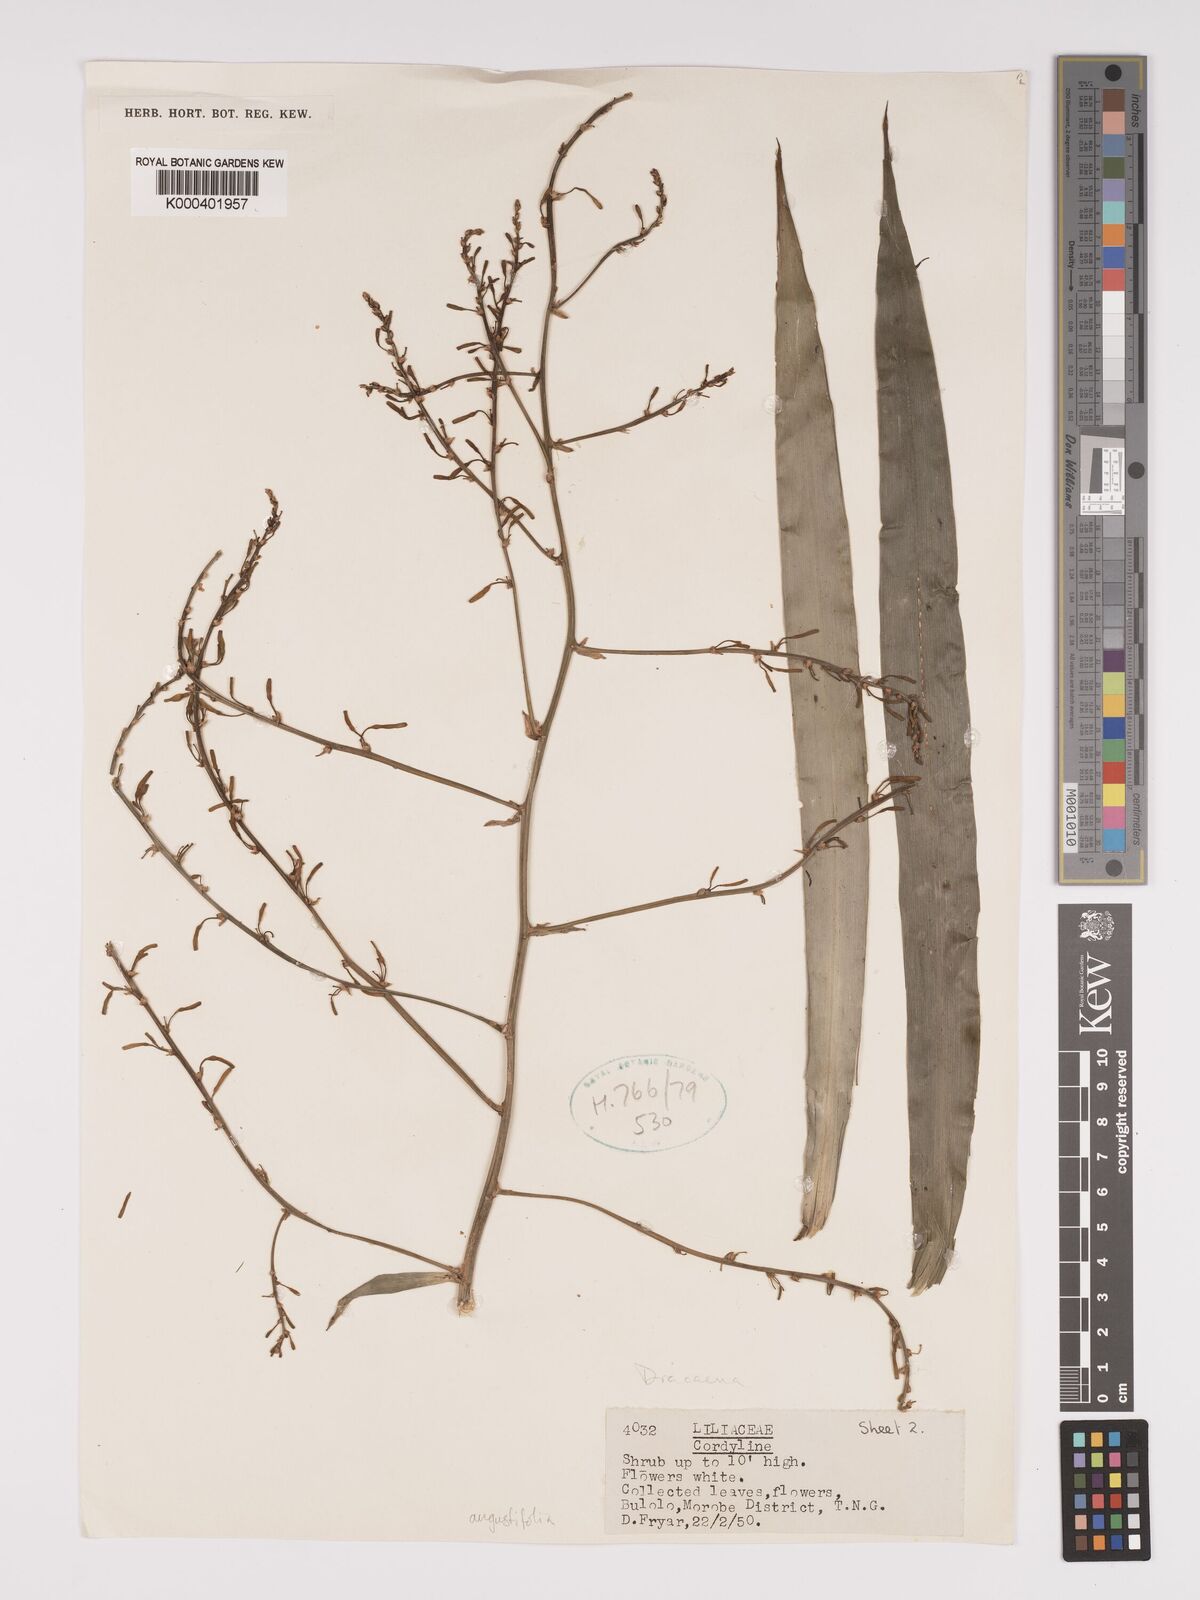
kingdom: Plantae
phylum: Tracheophyta
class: Liliopsida
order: Asparagales
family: Asparagaceae
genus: Dracaena
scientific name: Dracaena angustifolia
